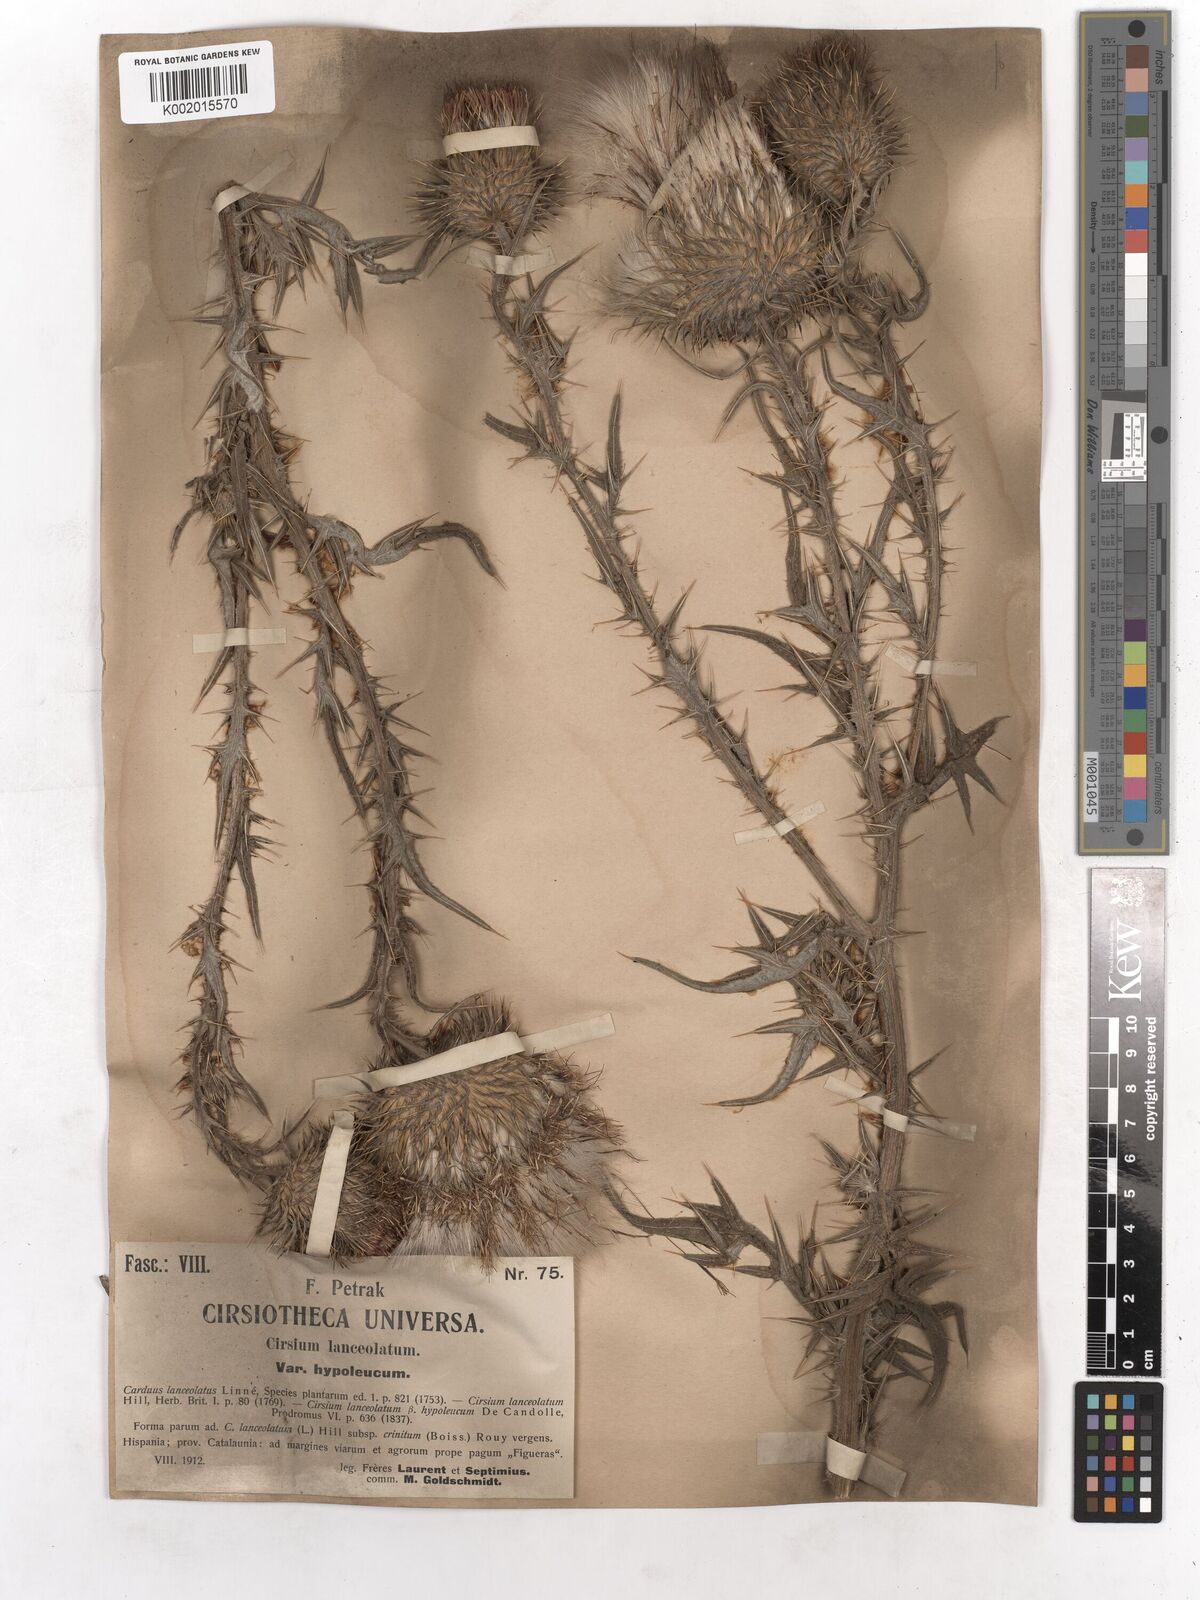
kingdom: Plantae
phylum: Tracheophyta
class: Magnoliopsida
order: Asterales
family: Asteraceae
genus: Cirsium
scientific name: Cirsium vulgare
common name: Bull thistle
